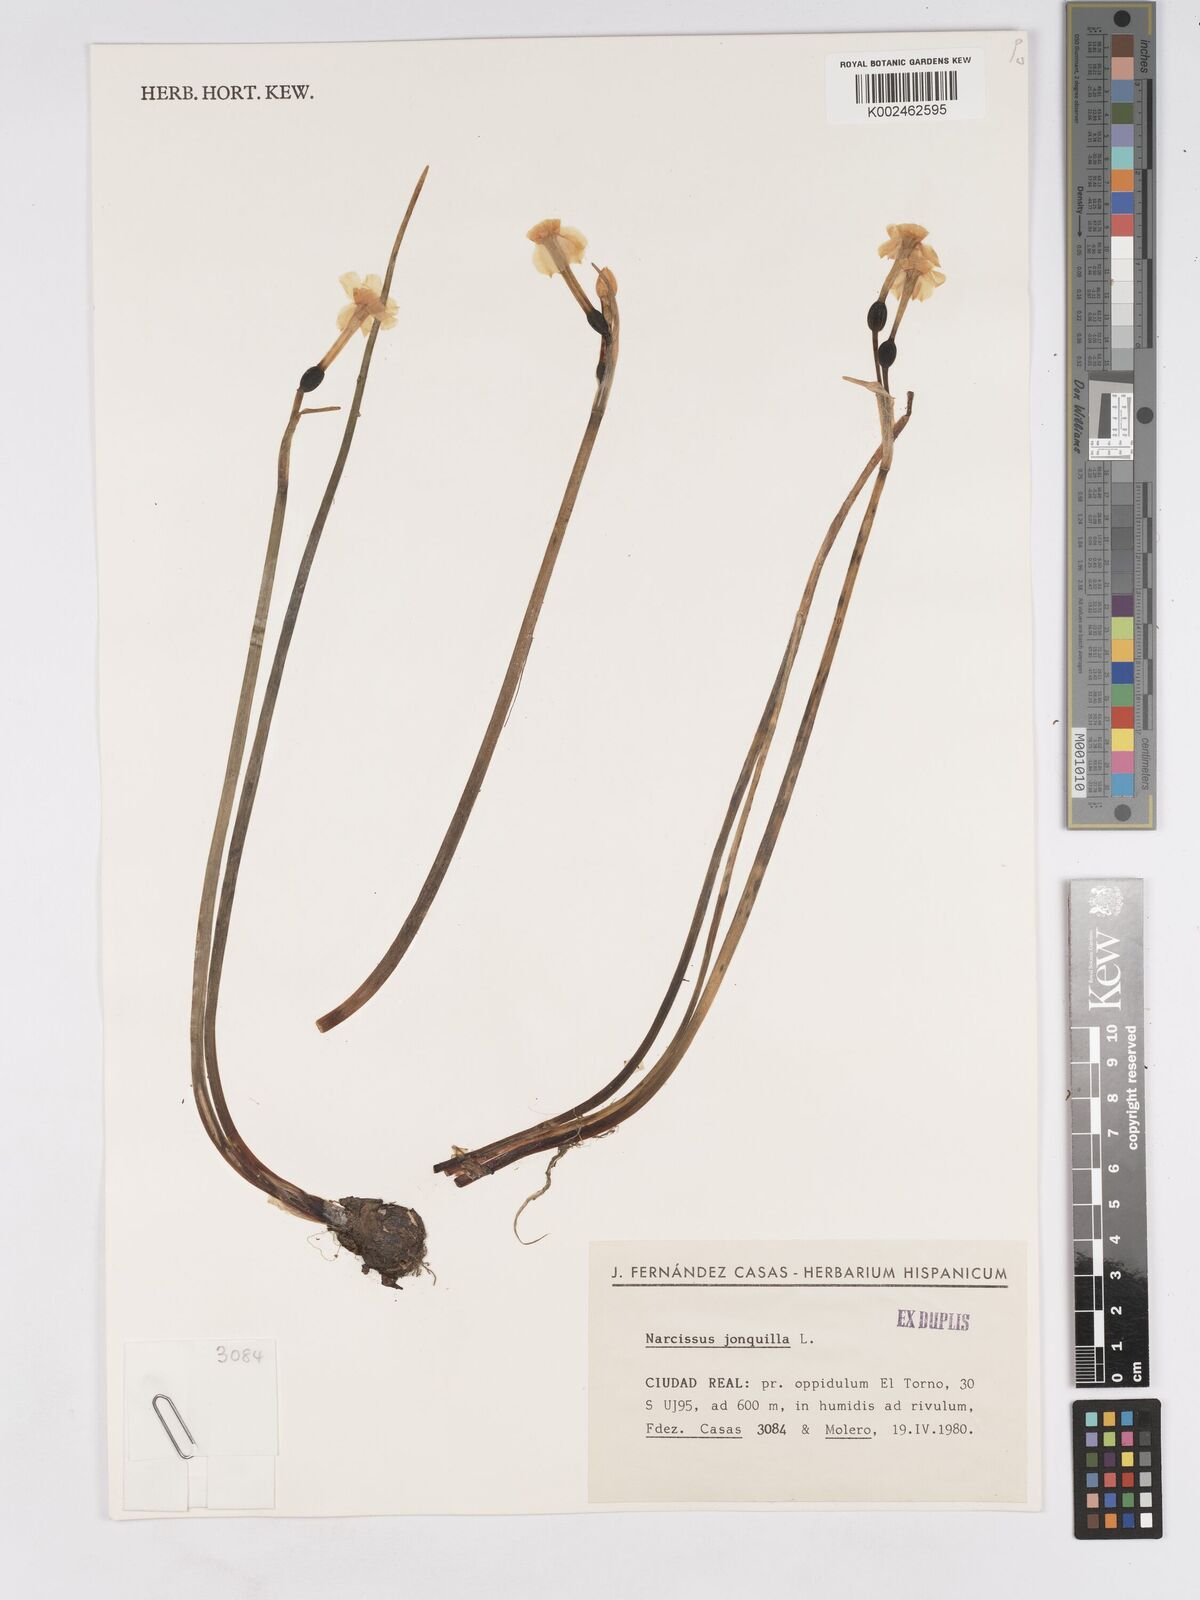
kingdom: Plantae
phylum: Tracheophyta
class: Liliopsida
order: Asparagales
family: Amaryllidaceae
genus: Narcissus
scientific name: Narcissus jonquilla
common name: Jonquil
